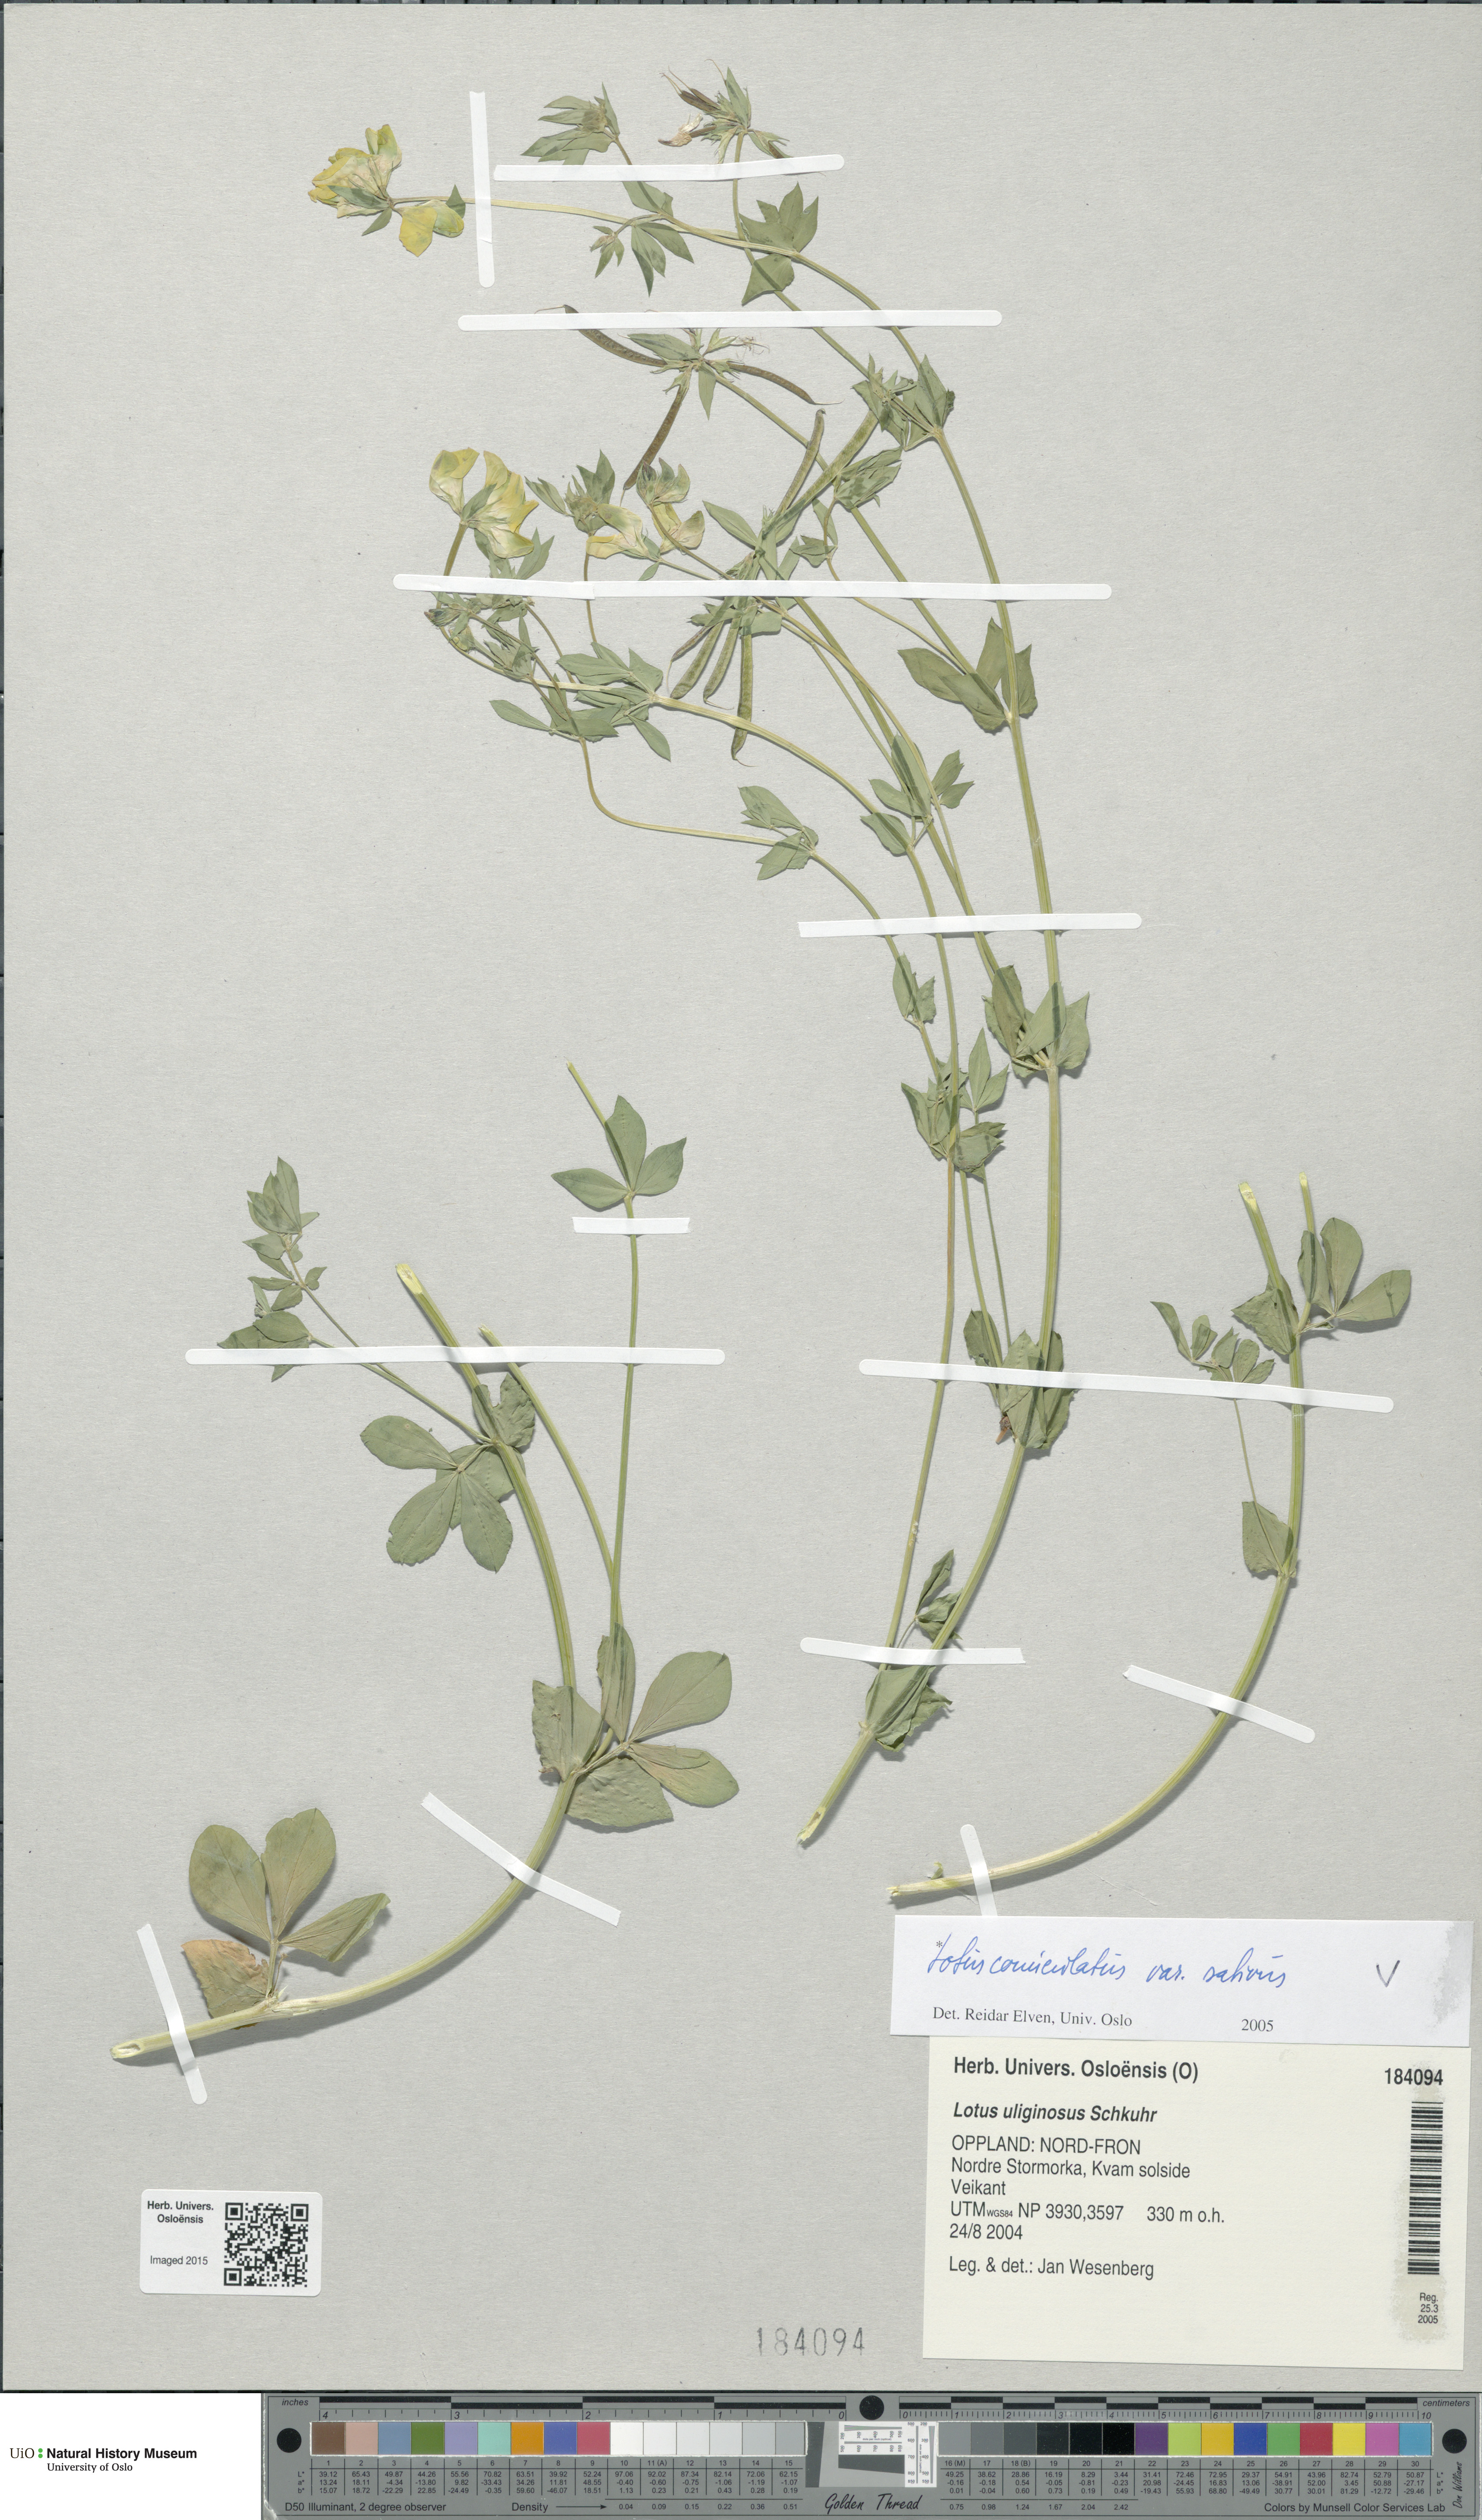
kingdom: Plantae
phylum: Tracheophyta
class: Magnoliopsida
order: Fabales
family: Fabaceae
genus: Lotus
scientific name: Lotus corniculatus
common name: Common bird's-foot-trefoil
